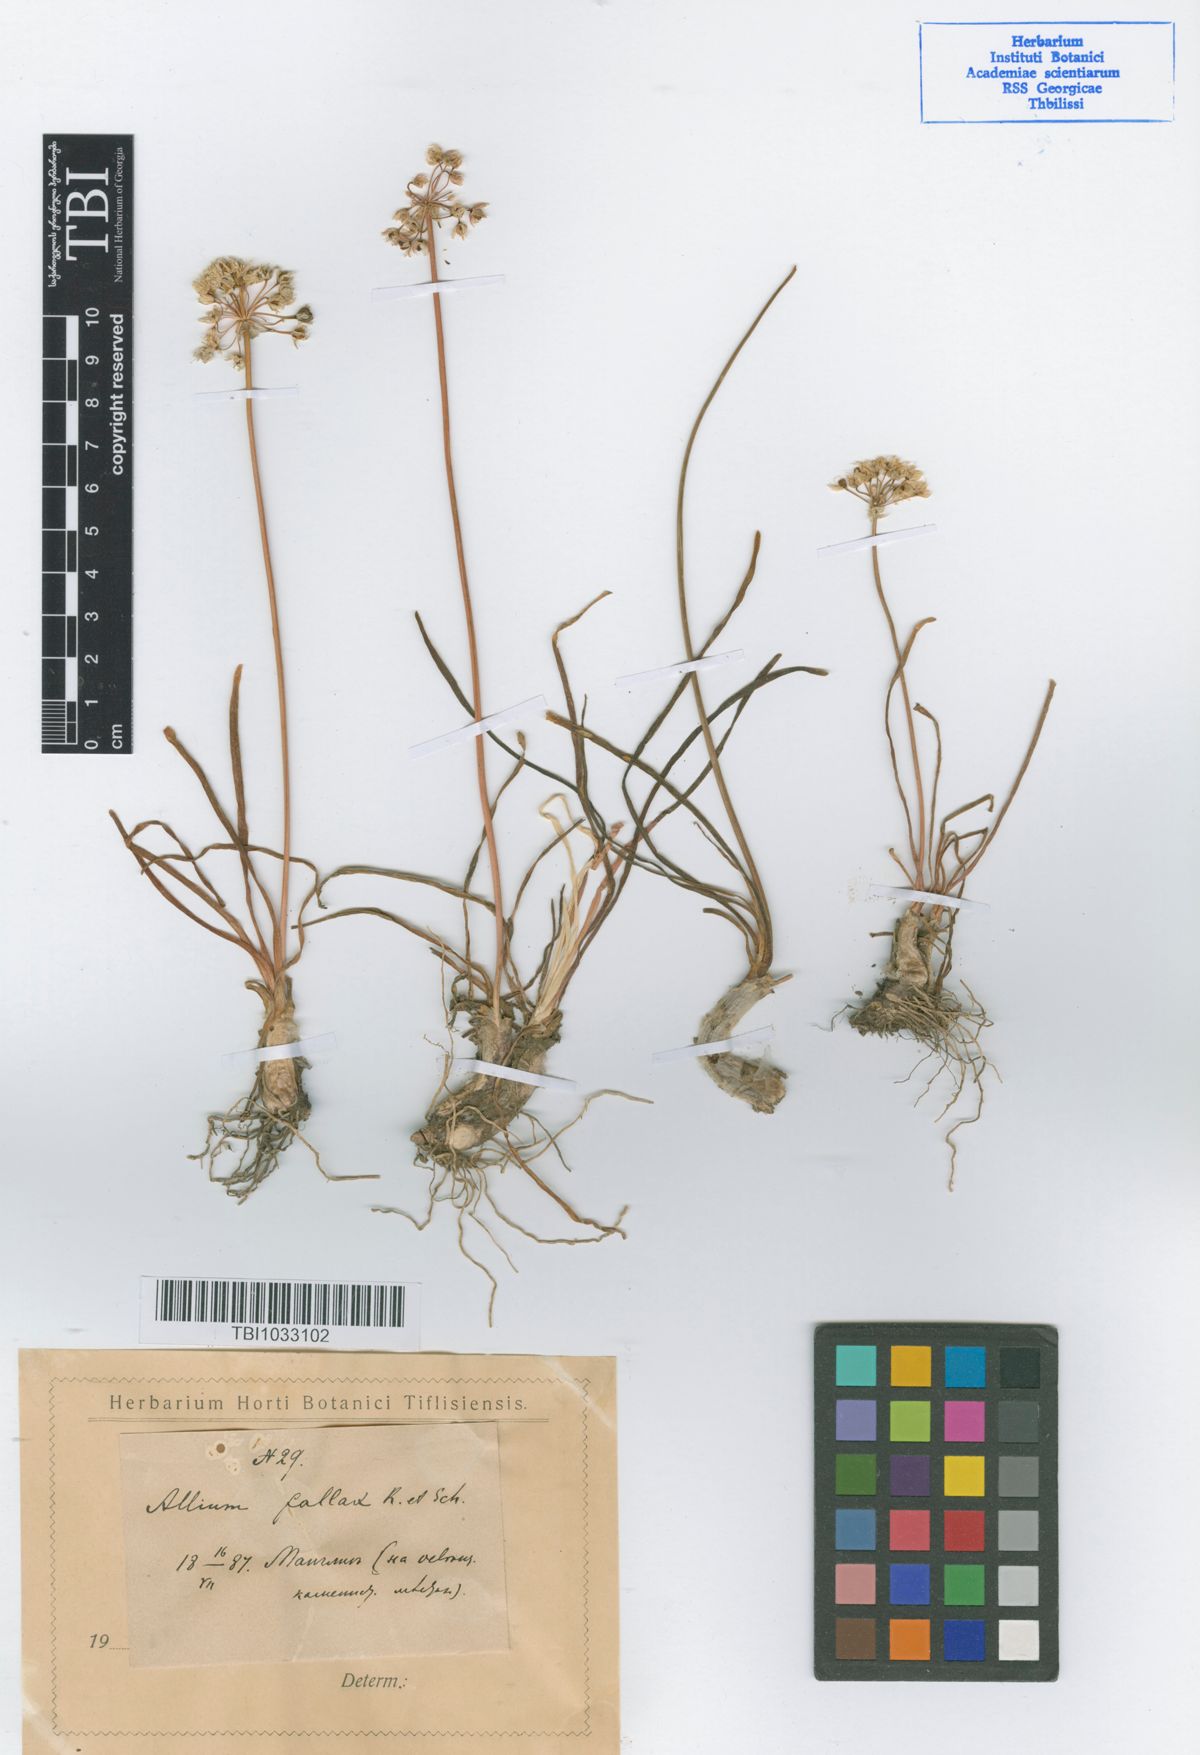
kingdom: Plantae
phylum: Tracheophyta
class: Liliopsida
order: Asparagales
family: Amaryllidaceae
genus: Allium
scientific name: Allium denudatum
